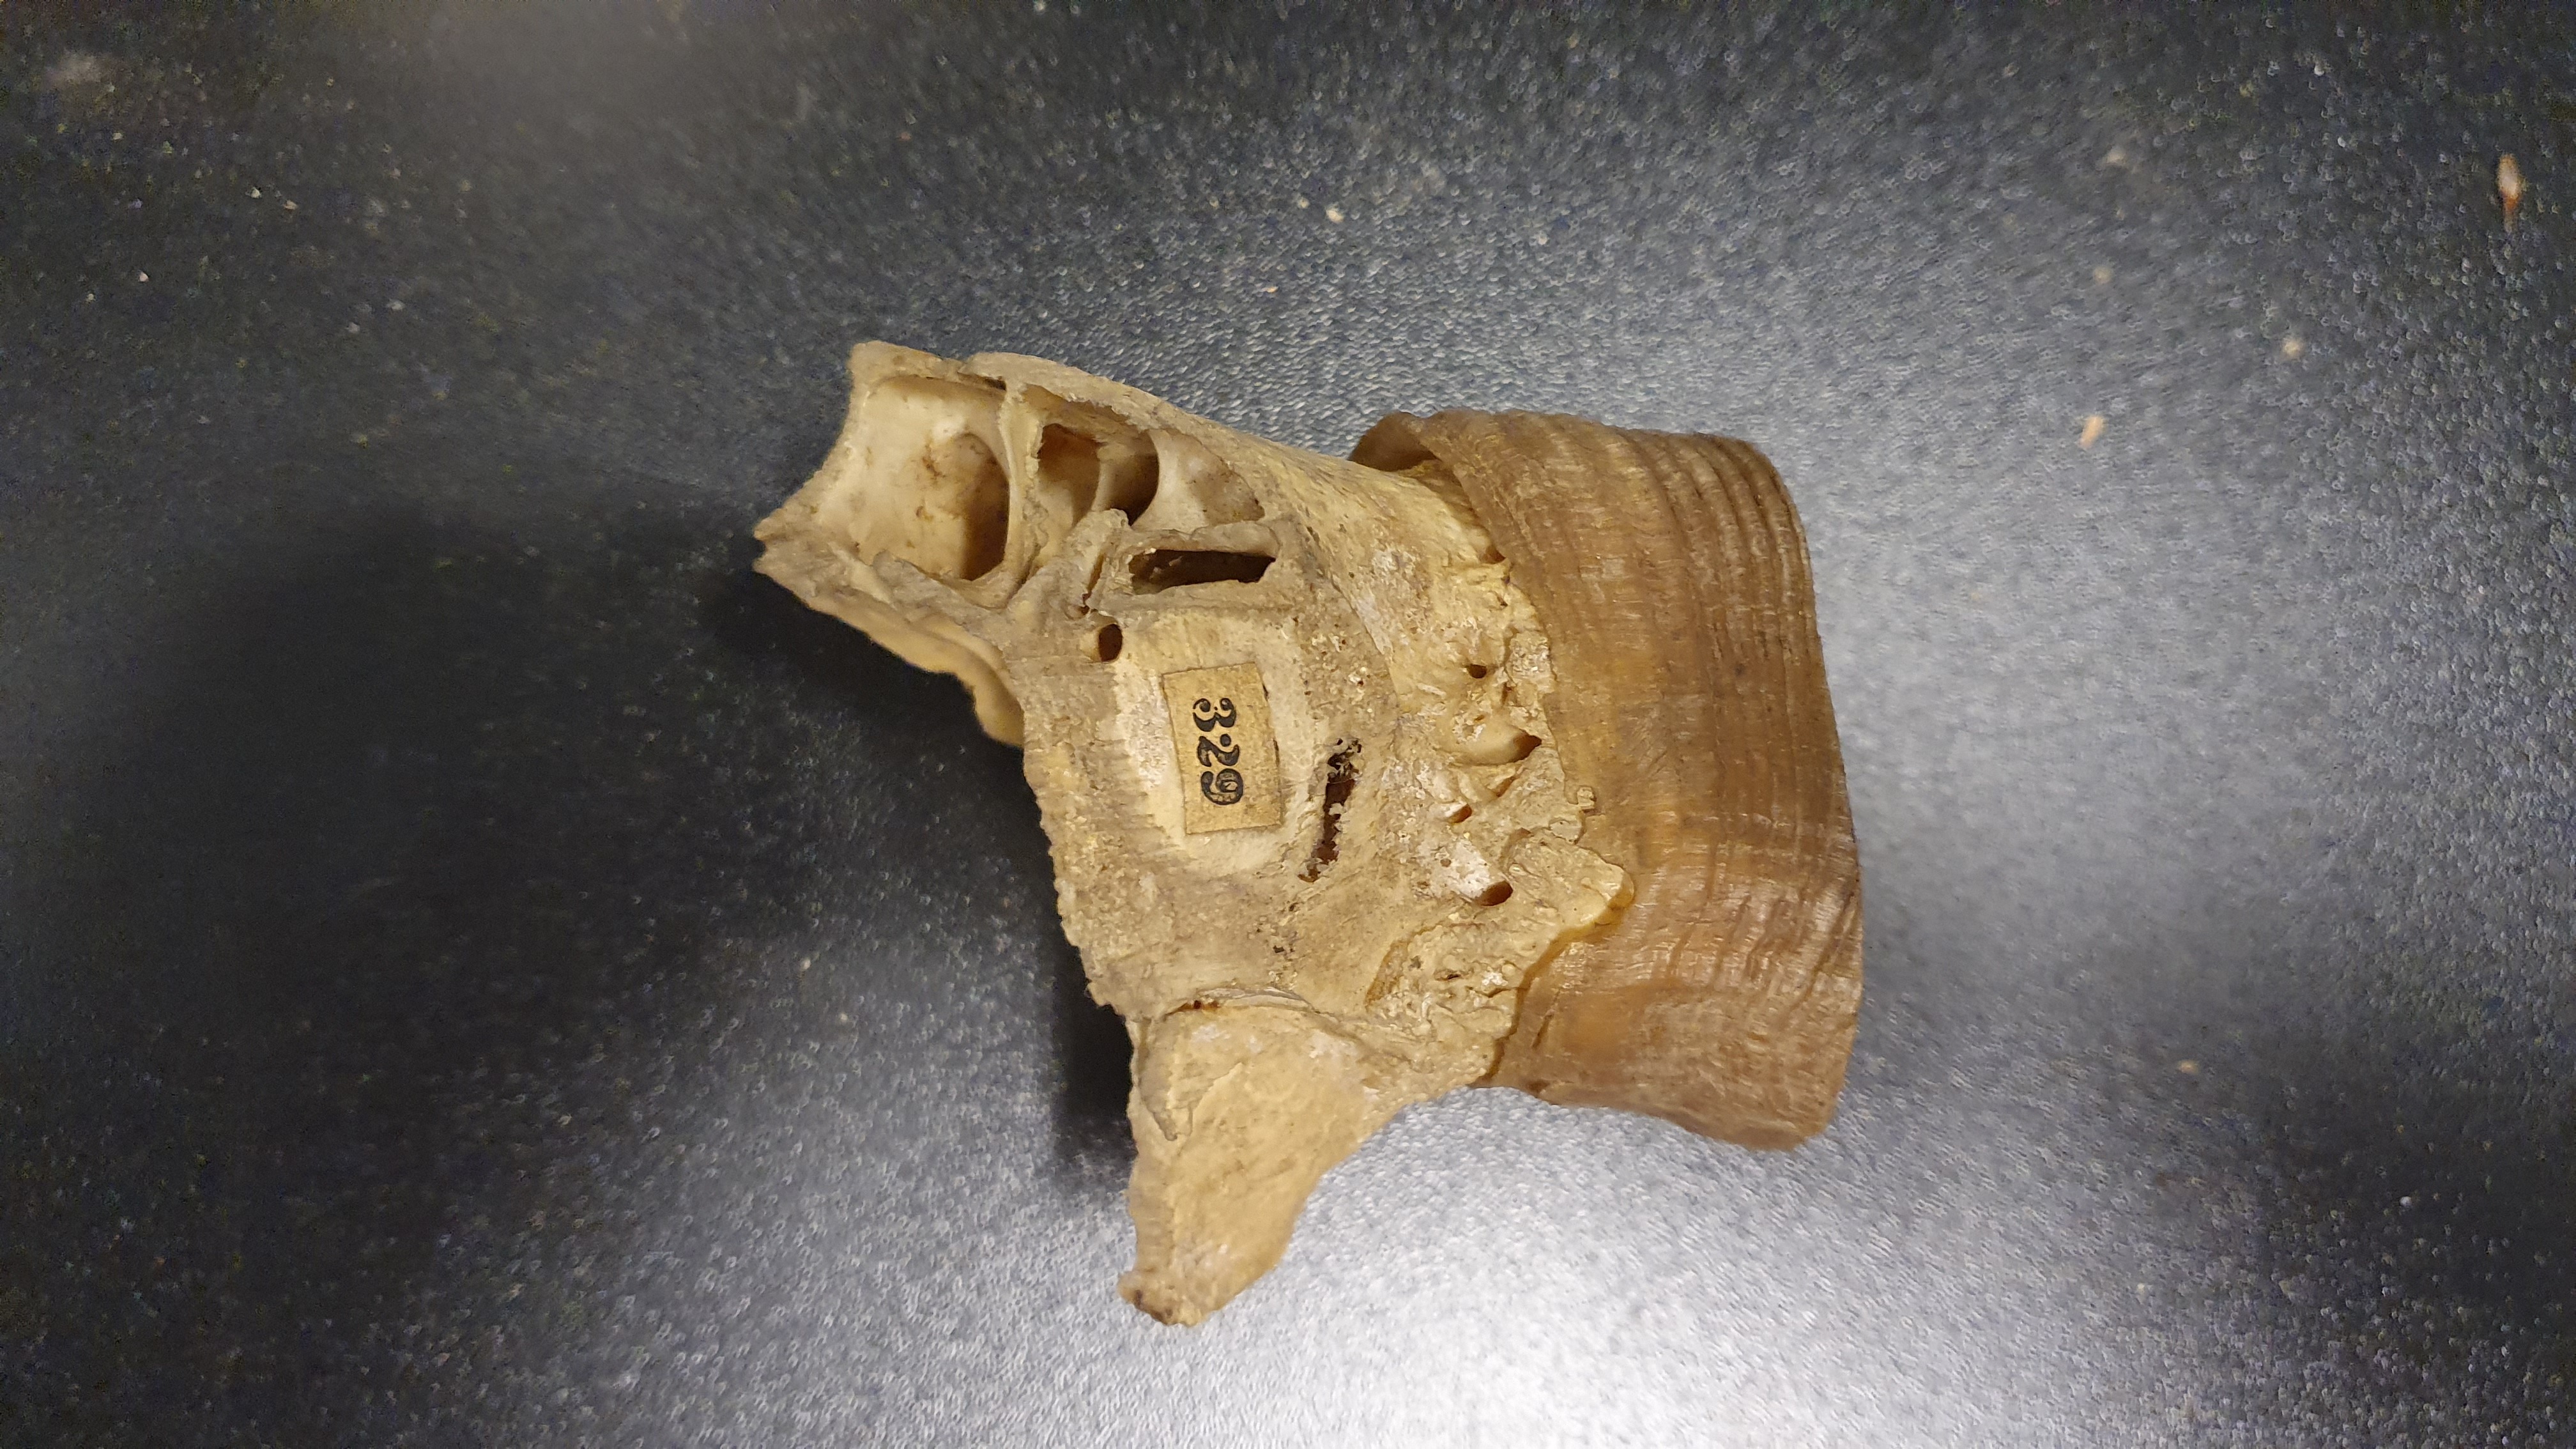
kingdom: Animalia
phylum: Chordata
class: Mammalia
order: Artiodactyla
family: Bovidae
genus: Ovis
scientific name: Ovis aries
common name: Domestic sheep
